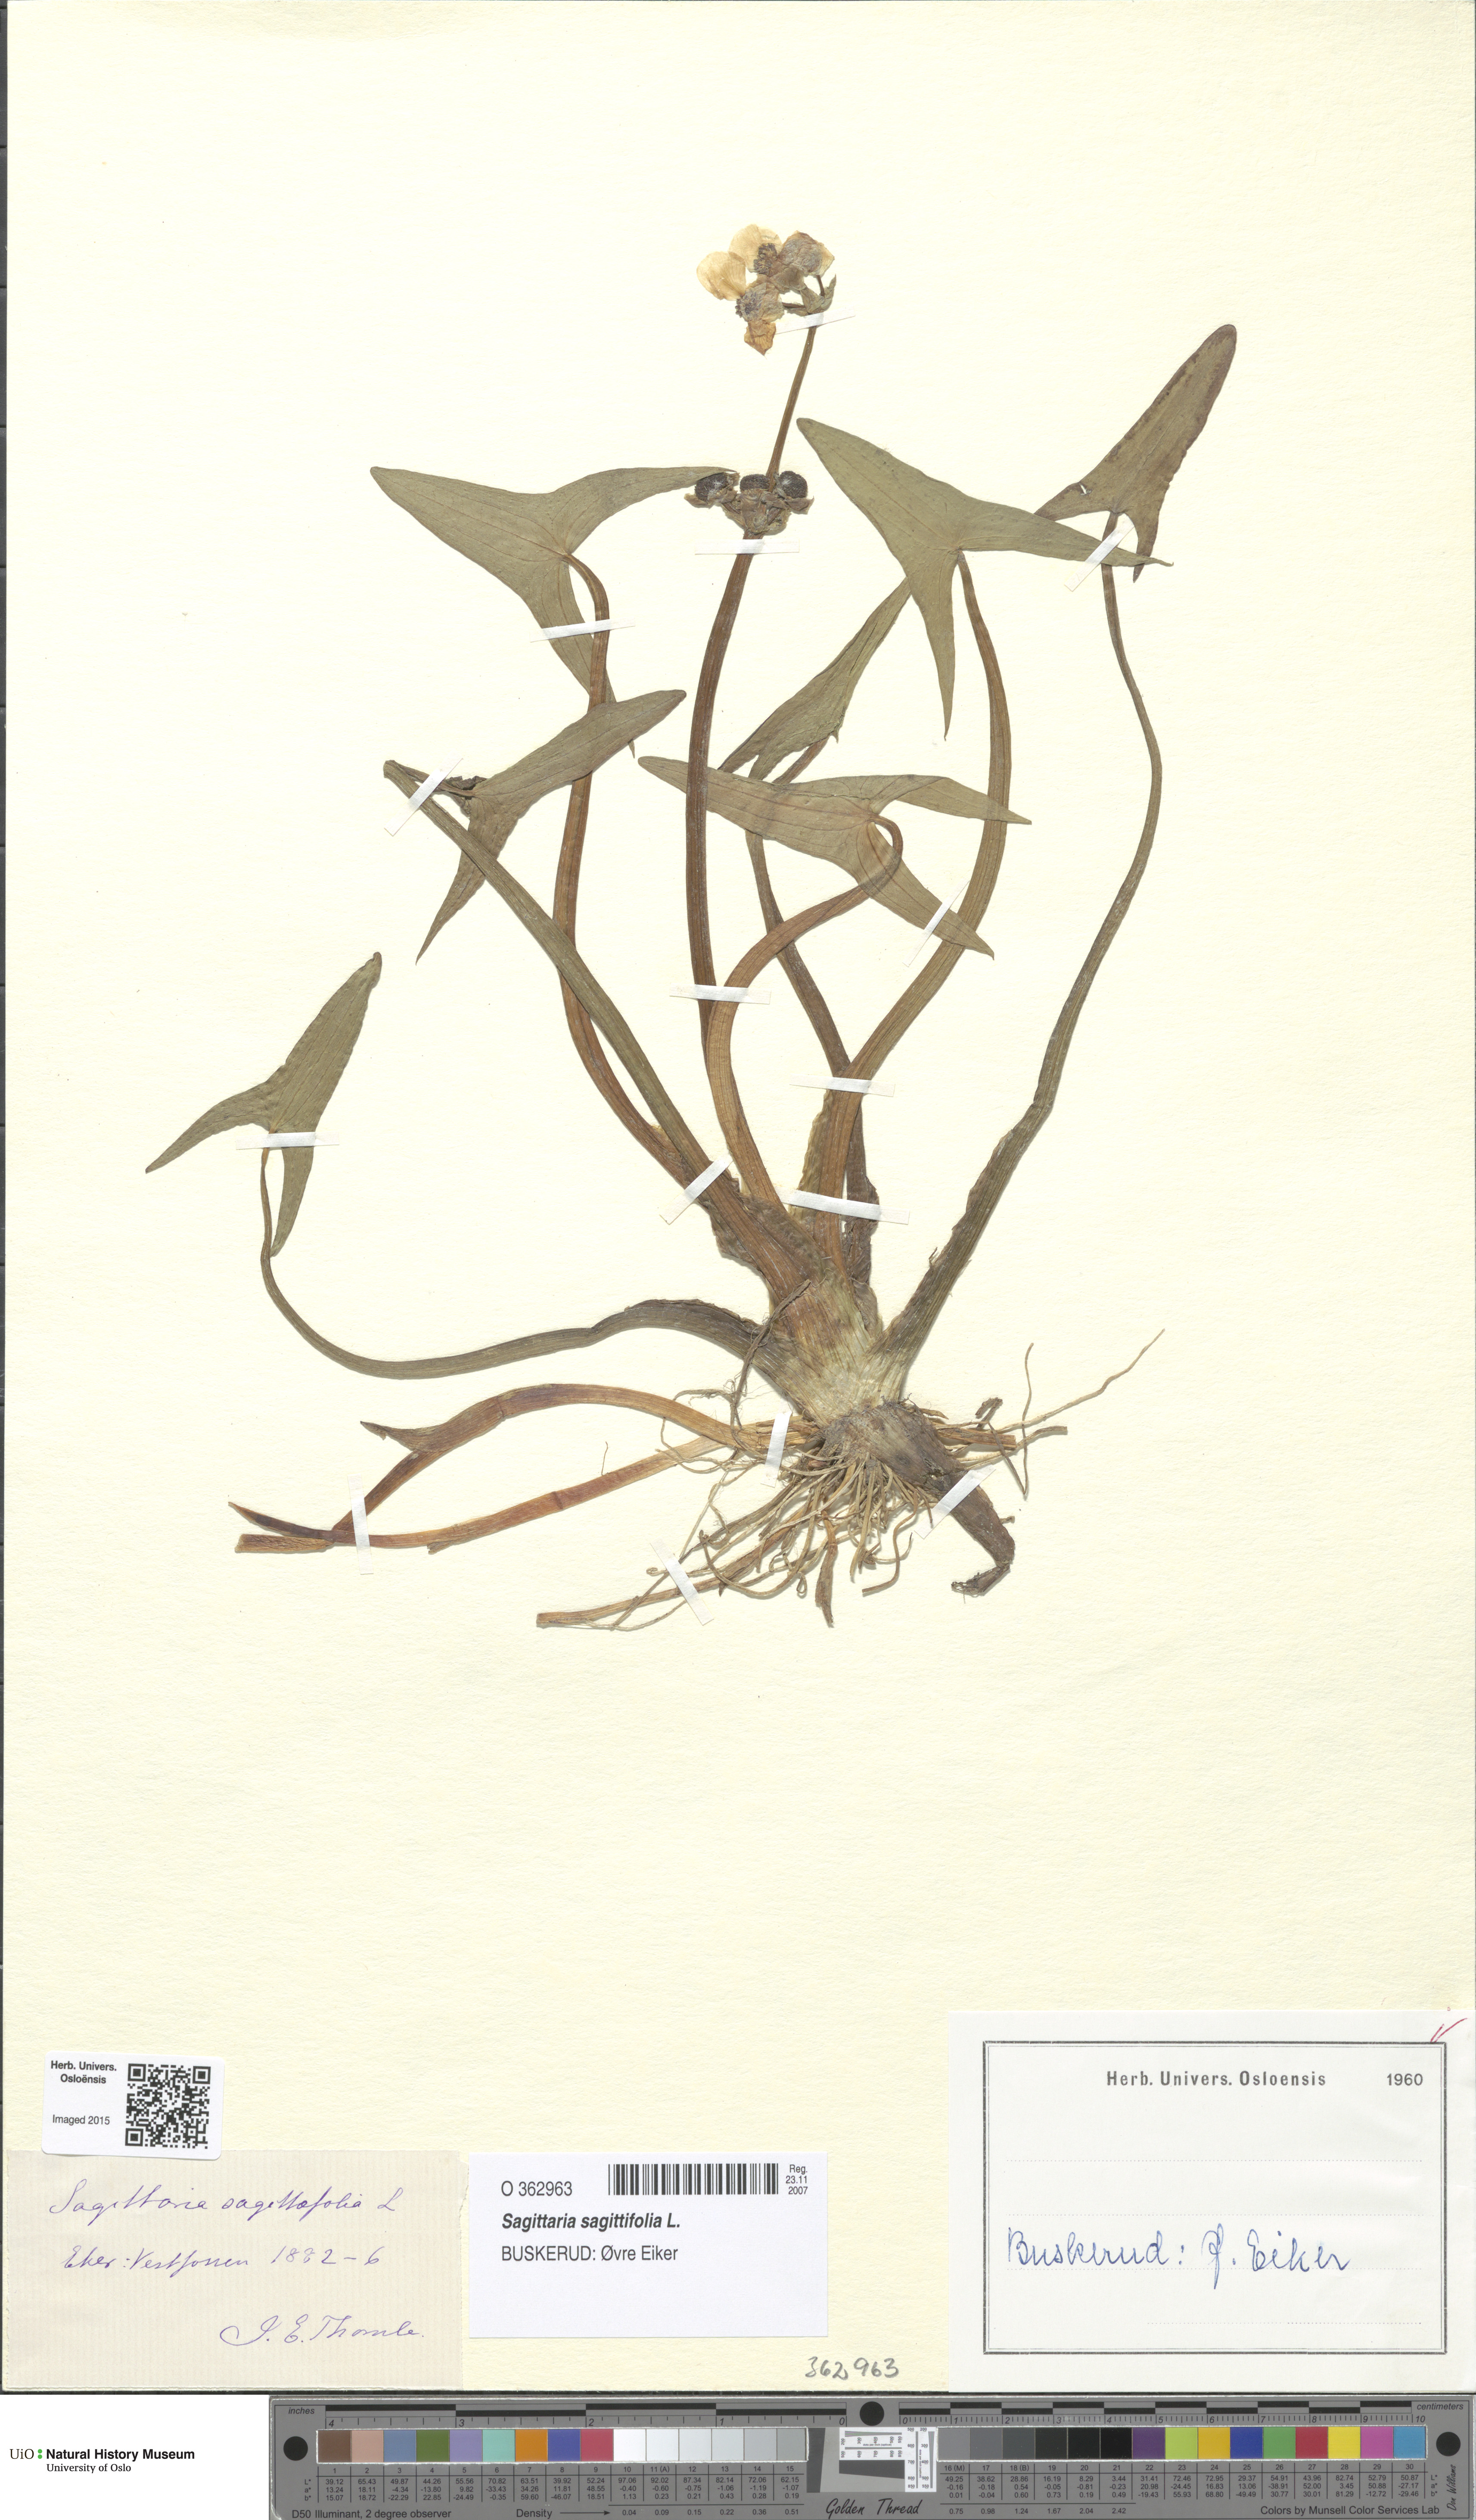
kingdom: Plantae
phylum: Tracheophyta
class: Liliopsida
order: Alismatales
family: Alismataceae
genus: Sagittaria
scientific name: Sagittaria sagittifolia
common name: Arrowhead
